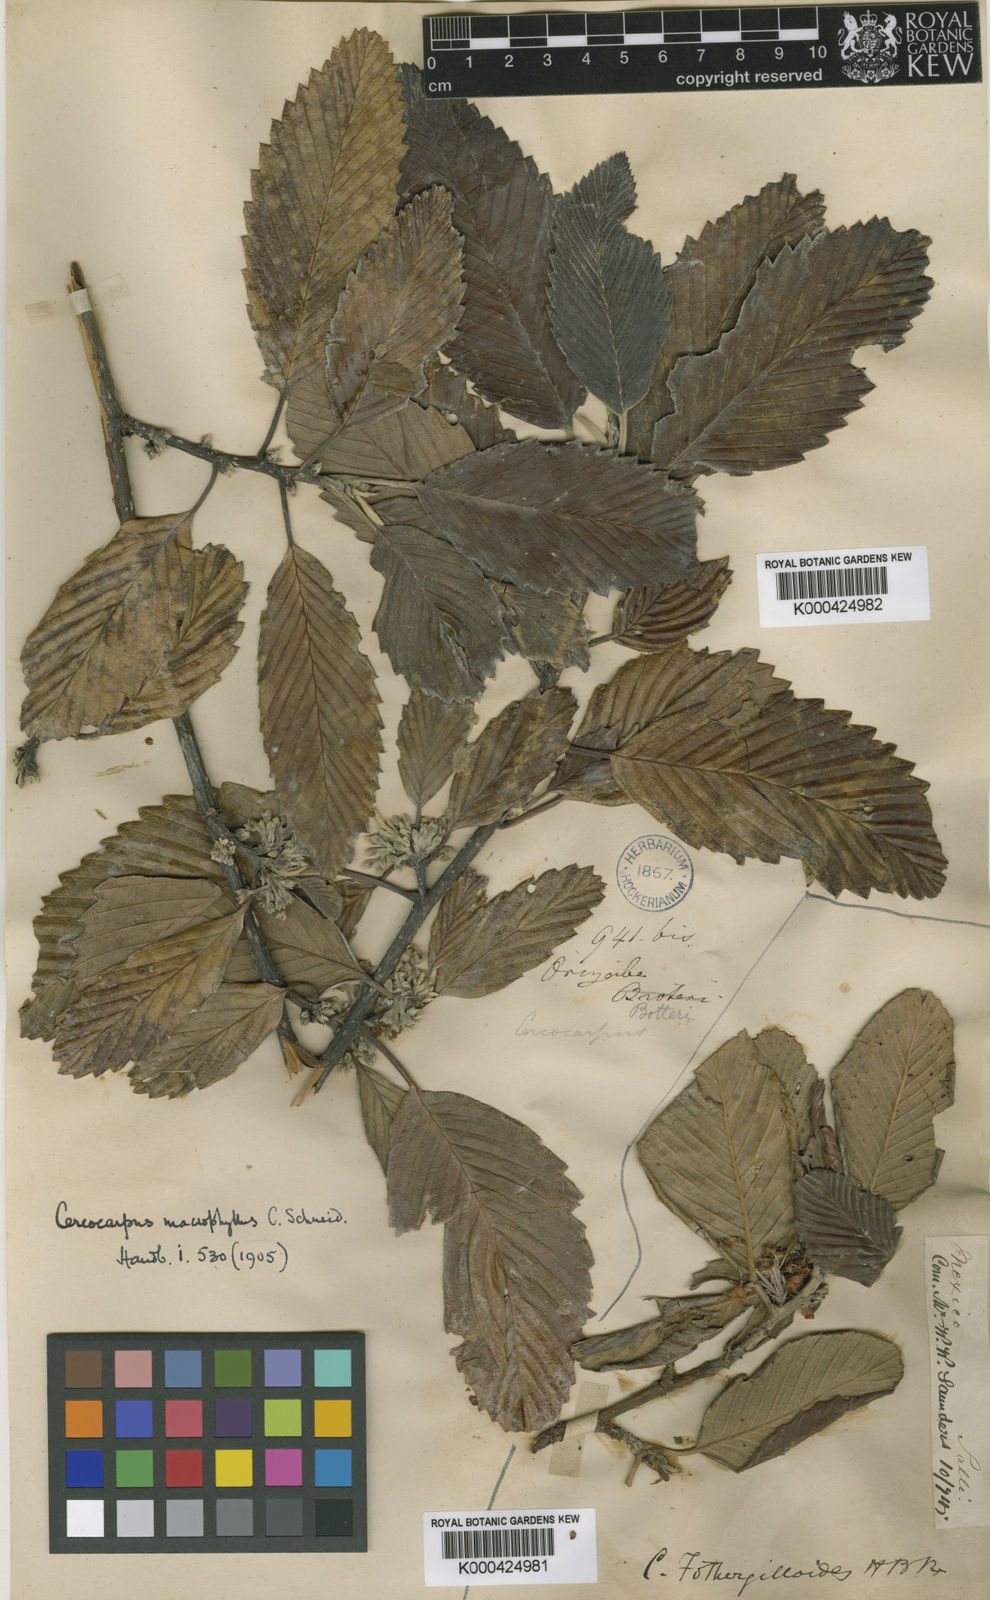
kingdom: Plantae
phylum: Tracheophyta
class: Magnoliopsida
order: Rosales
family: Rosaceae
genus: Cercocarpus
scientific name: Cercocarpus
